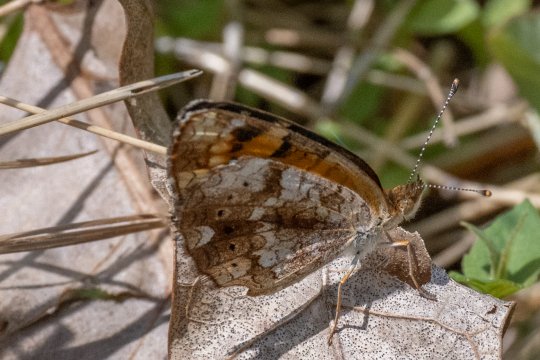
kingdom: Animalia
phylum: Arthropoda
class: Insecta
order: Lepidoptera
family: Nymphalidae
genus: Phyciodes
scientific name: Phyciodes tharos
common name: Pearl Crescent
